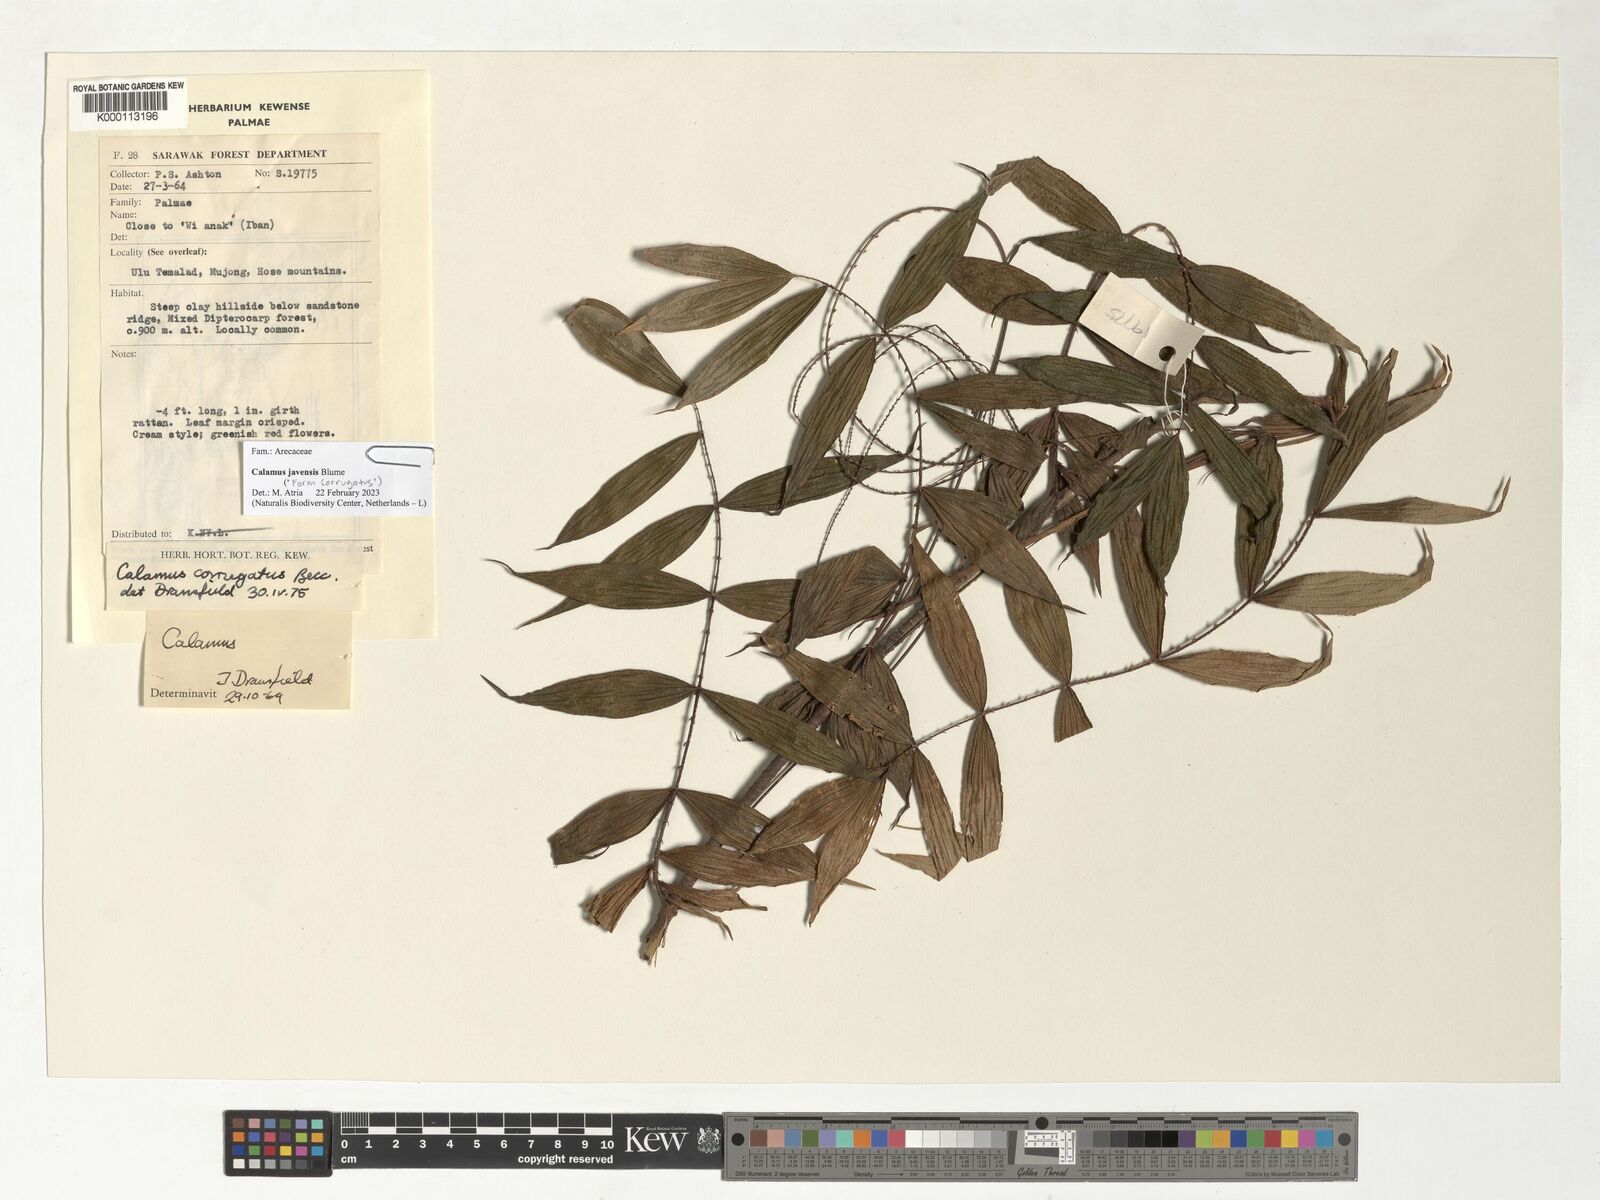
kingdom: Plantae
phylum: Tracheophyta
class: Liliopsida
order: Arecales
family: Arecaceae
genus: Calamus
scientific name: Calamus javensis
